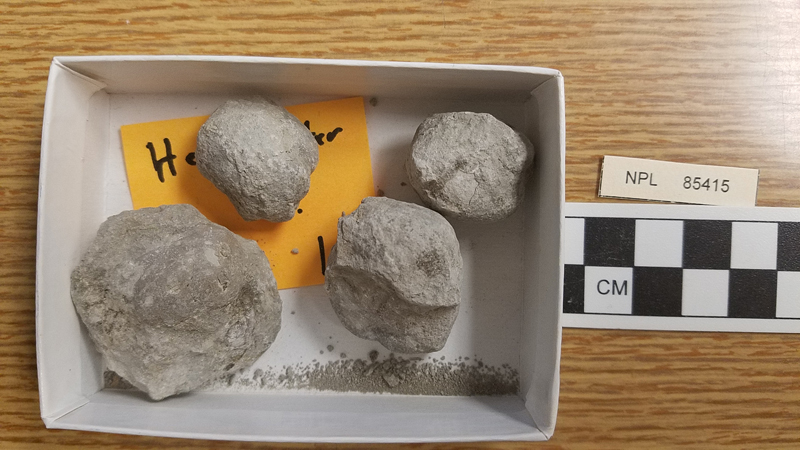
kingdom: Animalia
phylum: Echinodermata
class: Echinoidea
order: Spatangoida
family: Toxasteridae
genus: Heteraster
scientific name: Heteraster
